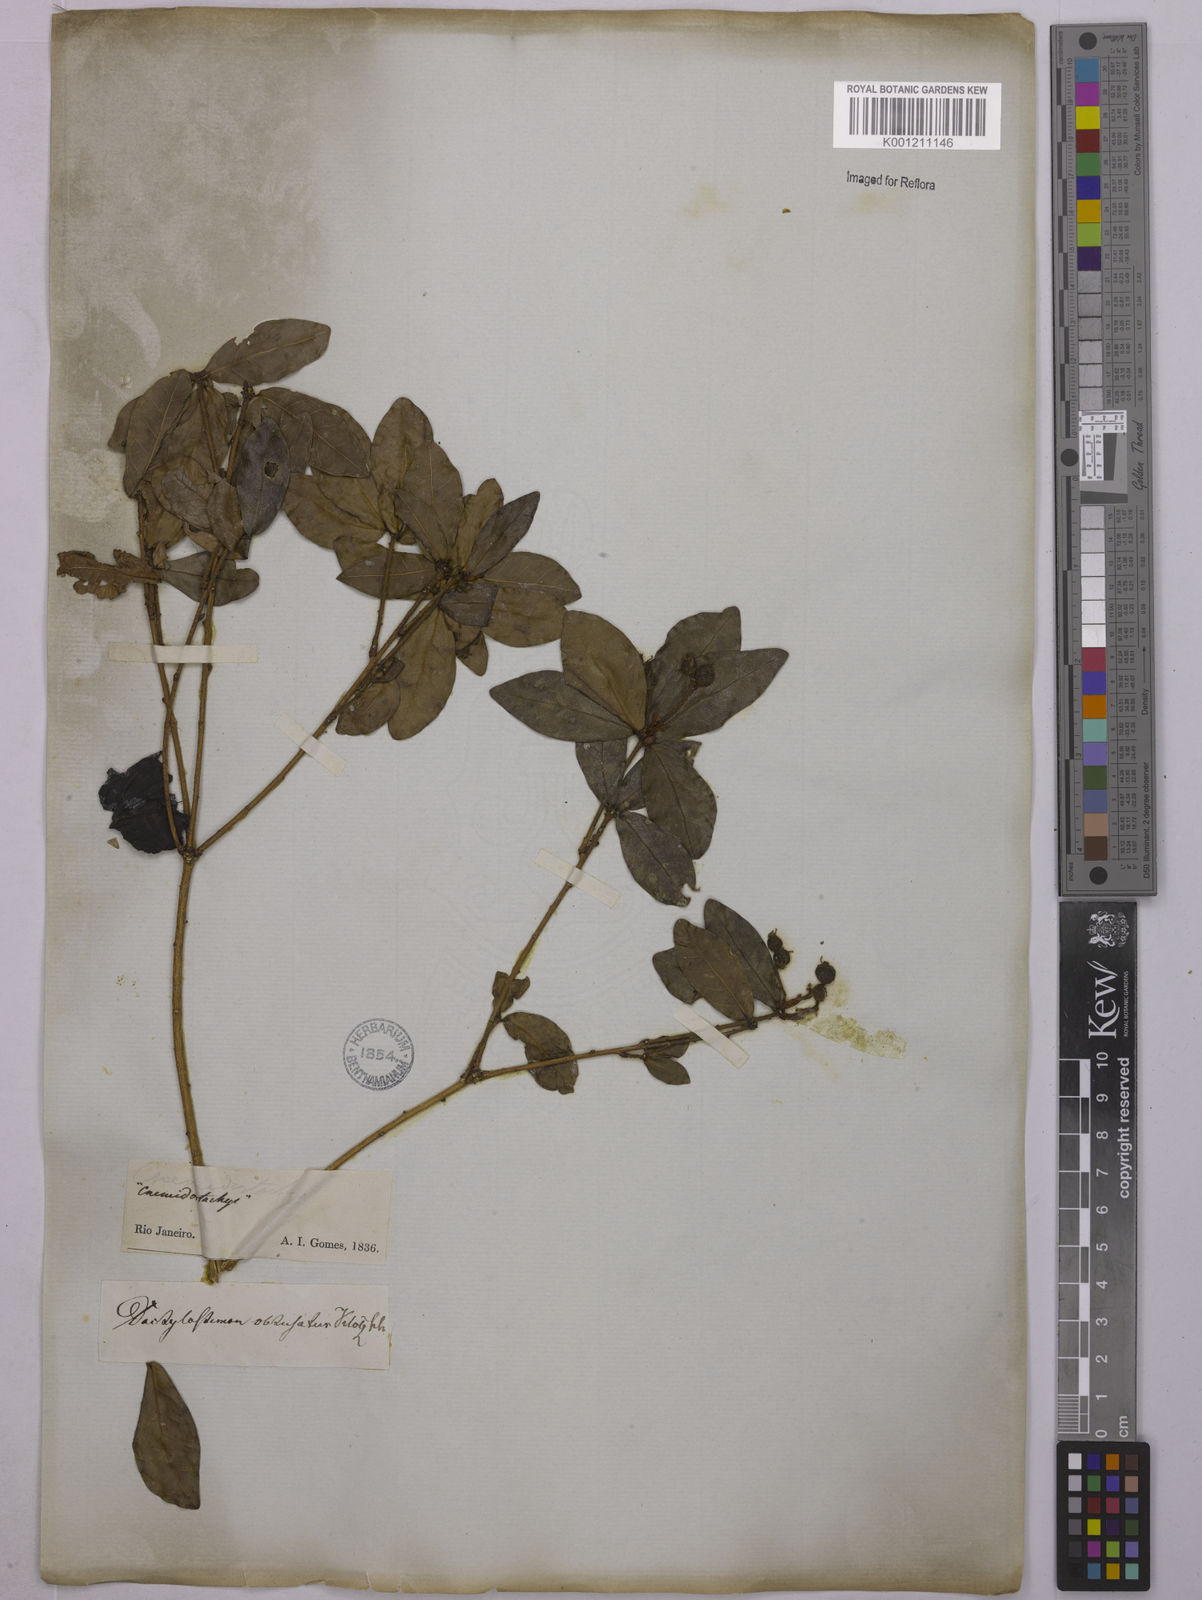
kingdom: Plantae
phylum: Tracheophyta
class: Magnoliopsida
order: Malpighiales
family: Euphorbiaceae
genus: Actinostemon
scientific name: Actinostemon verticillatus
